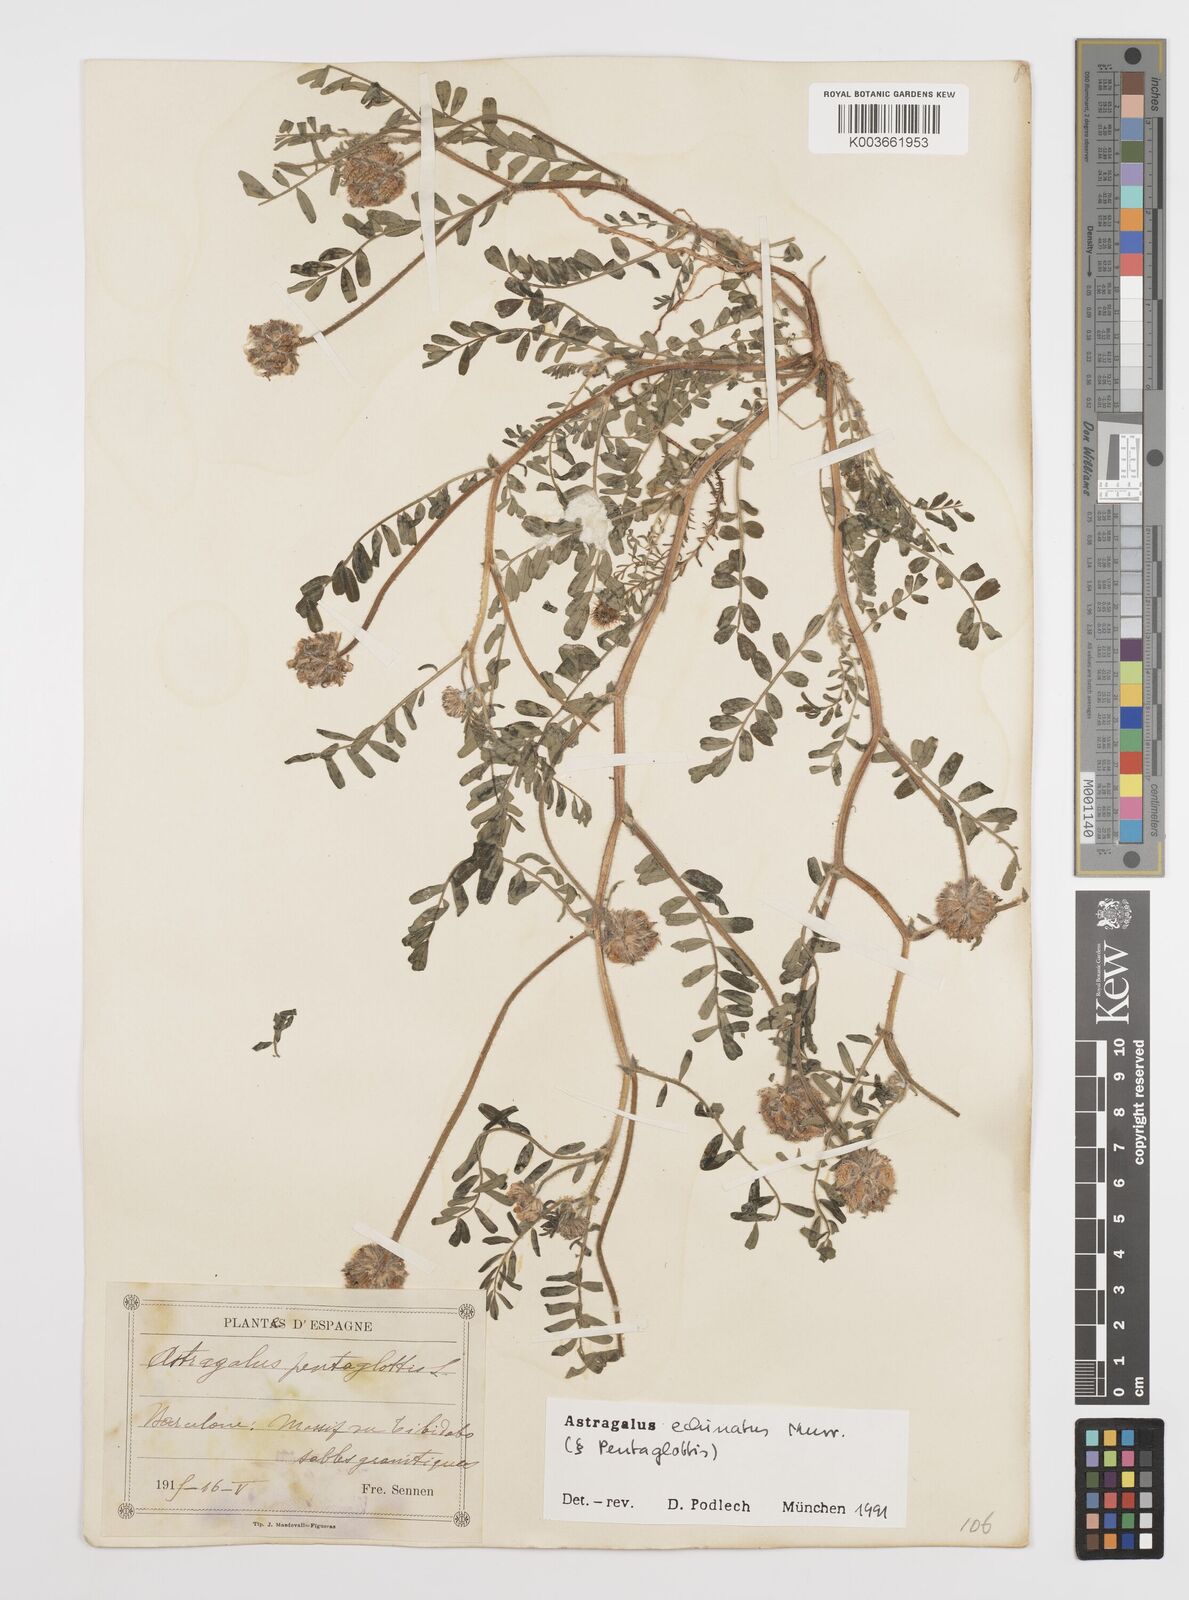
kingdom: Plantae
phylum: Tracheophyta
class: Magnoliopsida
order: Fabales
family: Fabaceae
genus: Astragalus
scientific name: Astragalus echinatus
